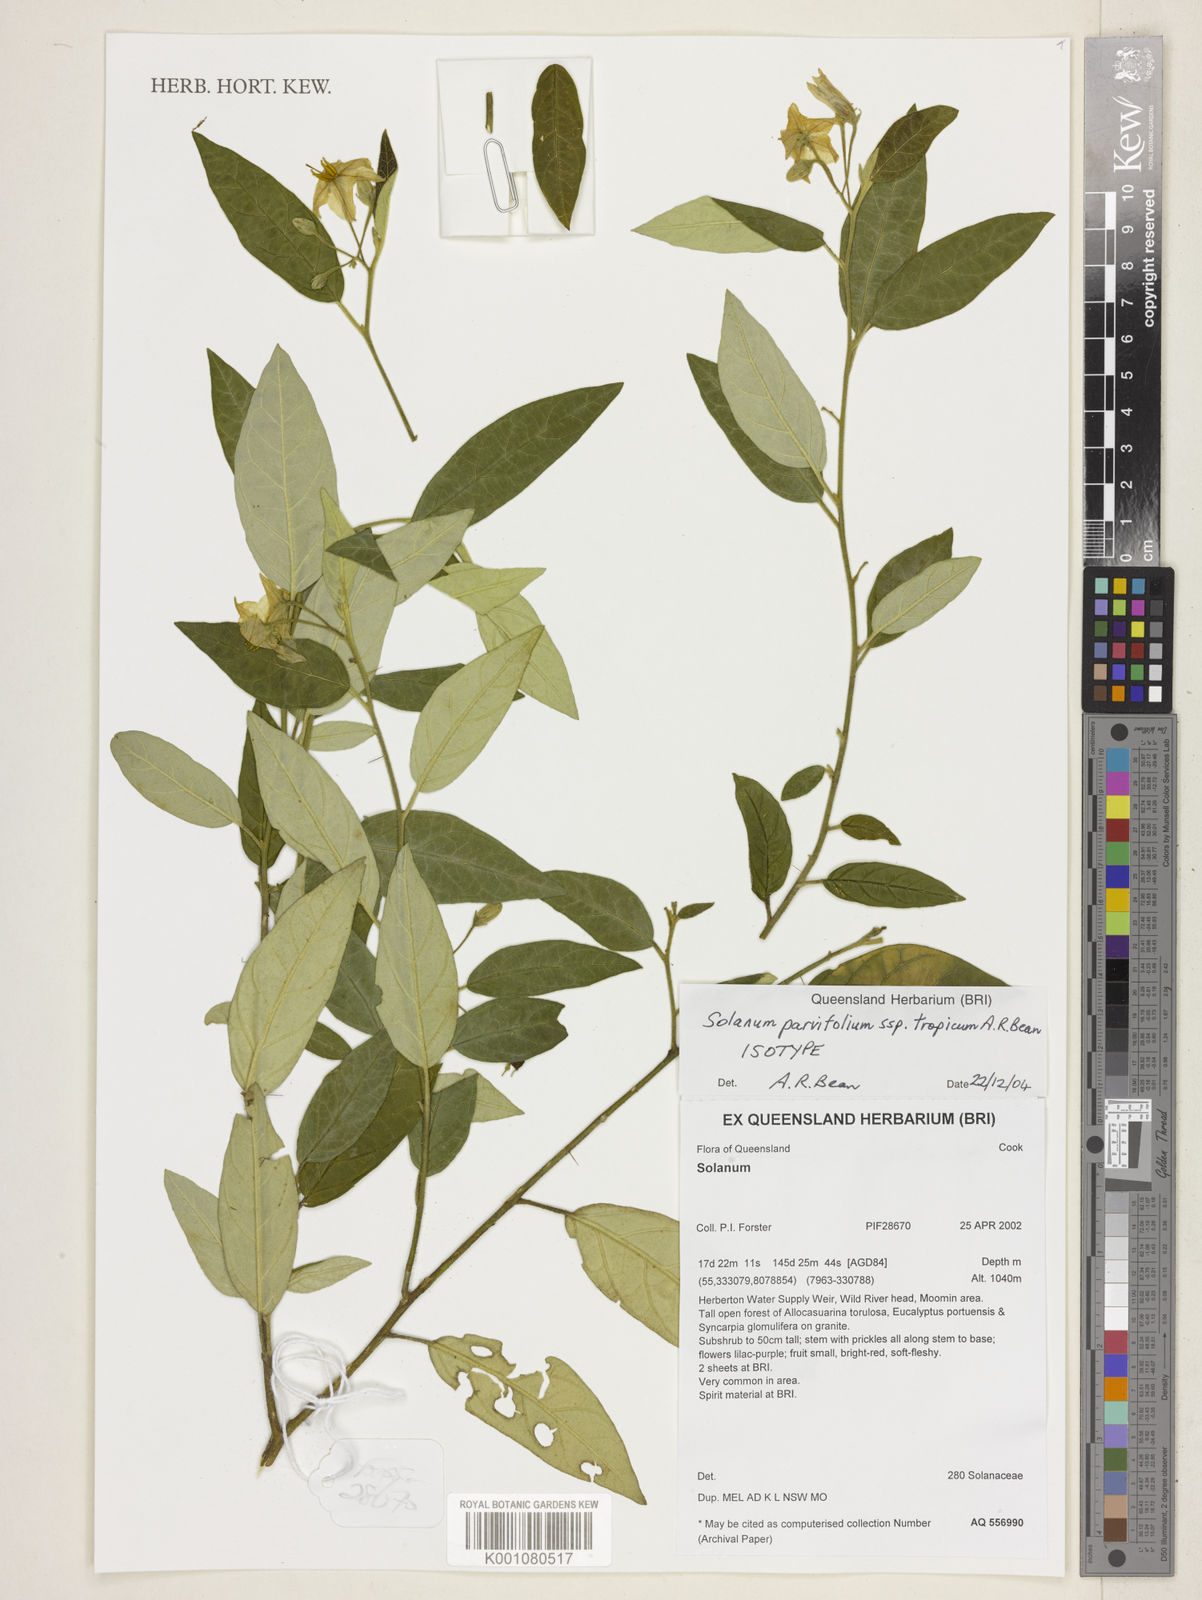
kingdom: Plantae
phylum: Tracheophyta
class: Magnoliopsida
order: Solanales
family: Solanaceae
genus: Solanum
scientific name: Solanum parvifolium
